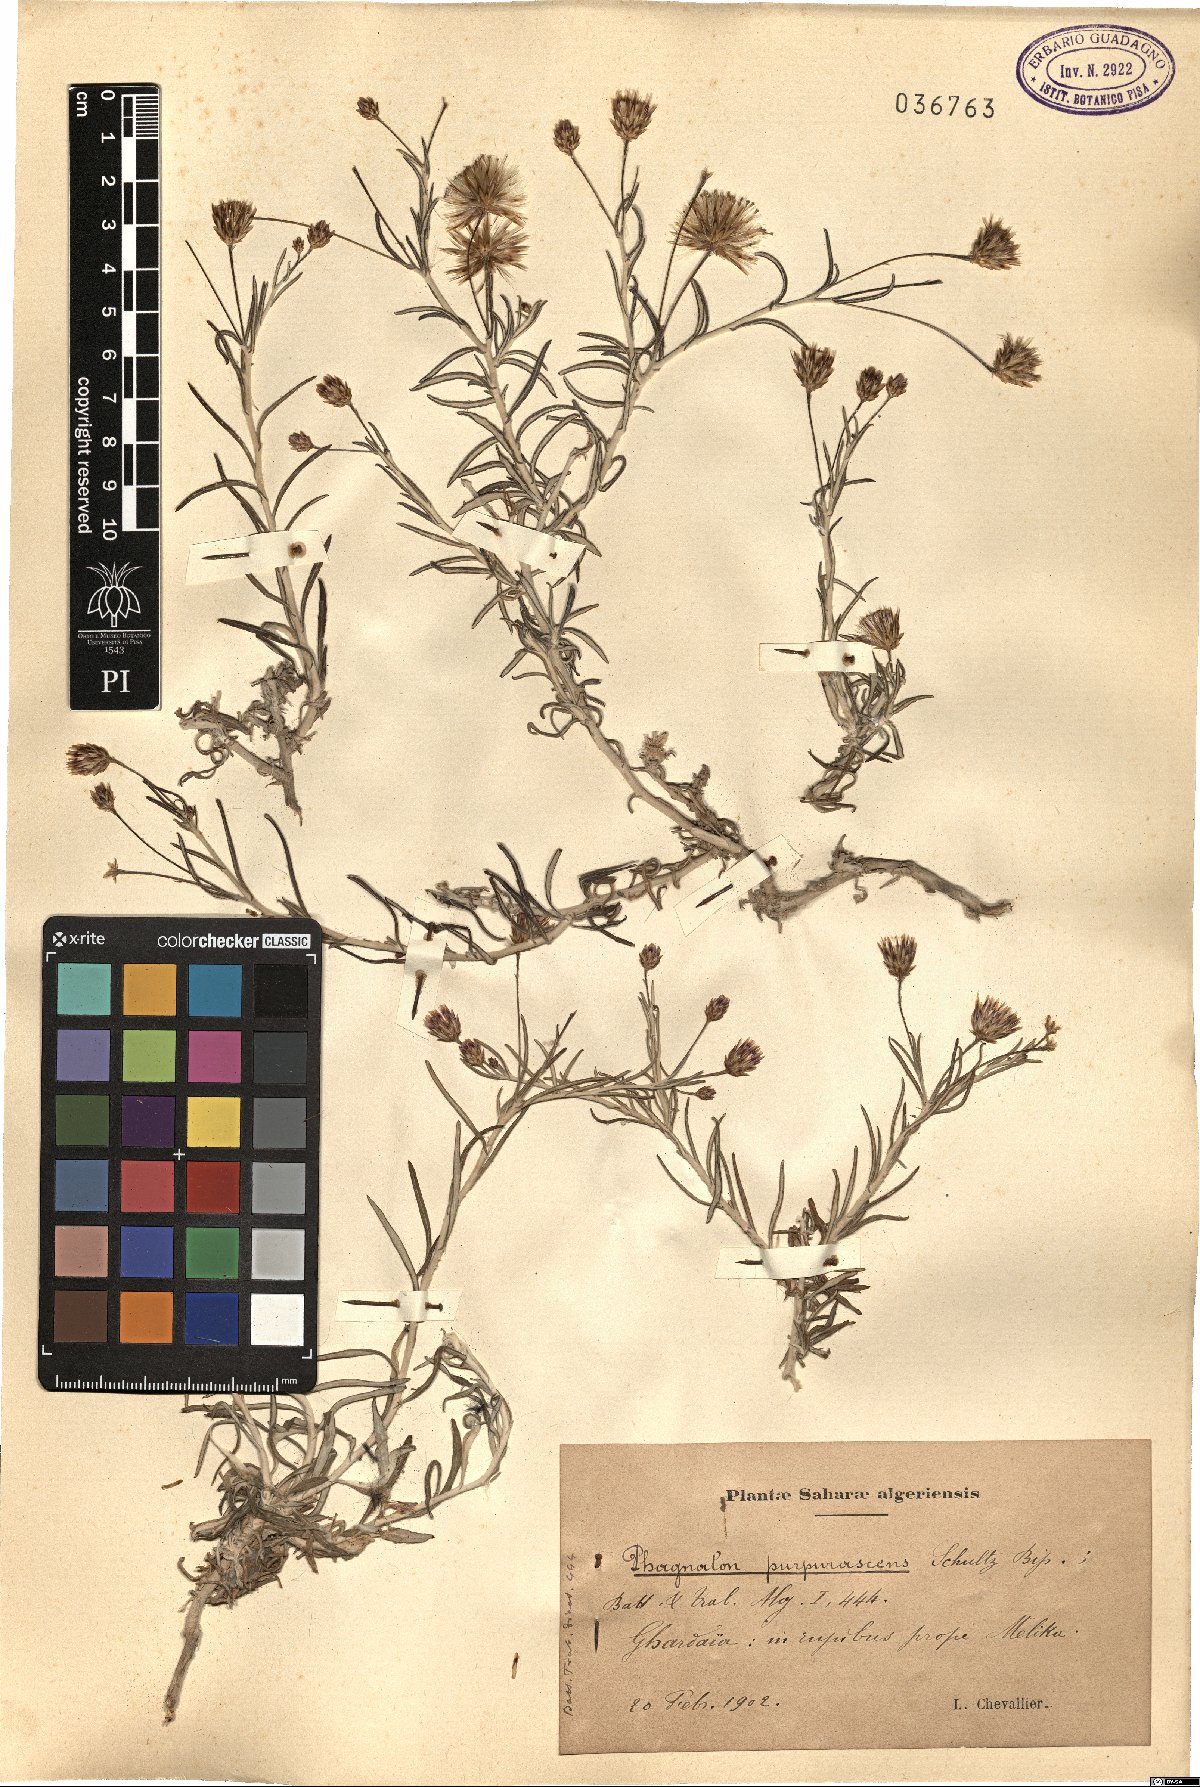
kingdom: Plantae
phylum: Tracheophyta
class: Magnoliopsida
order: Asterales
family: Asteraceae
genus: Phagnalon
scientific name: Phagnalon purpurascens
